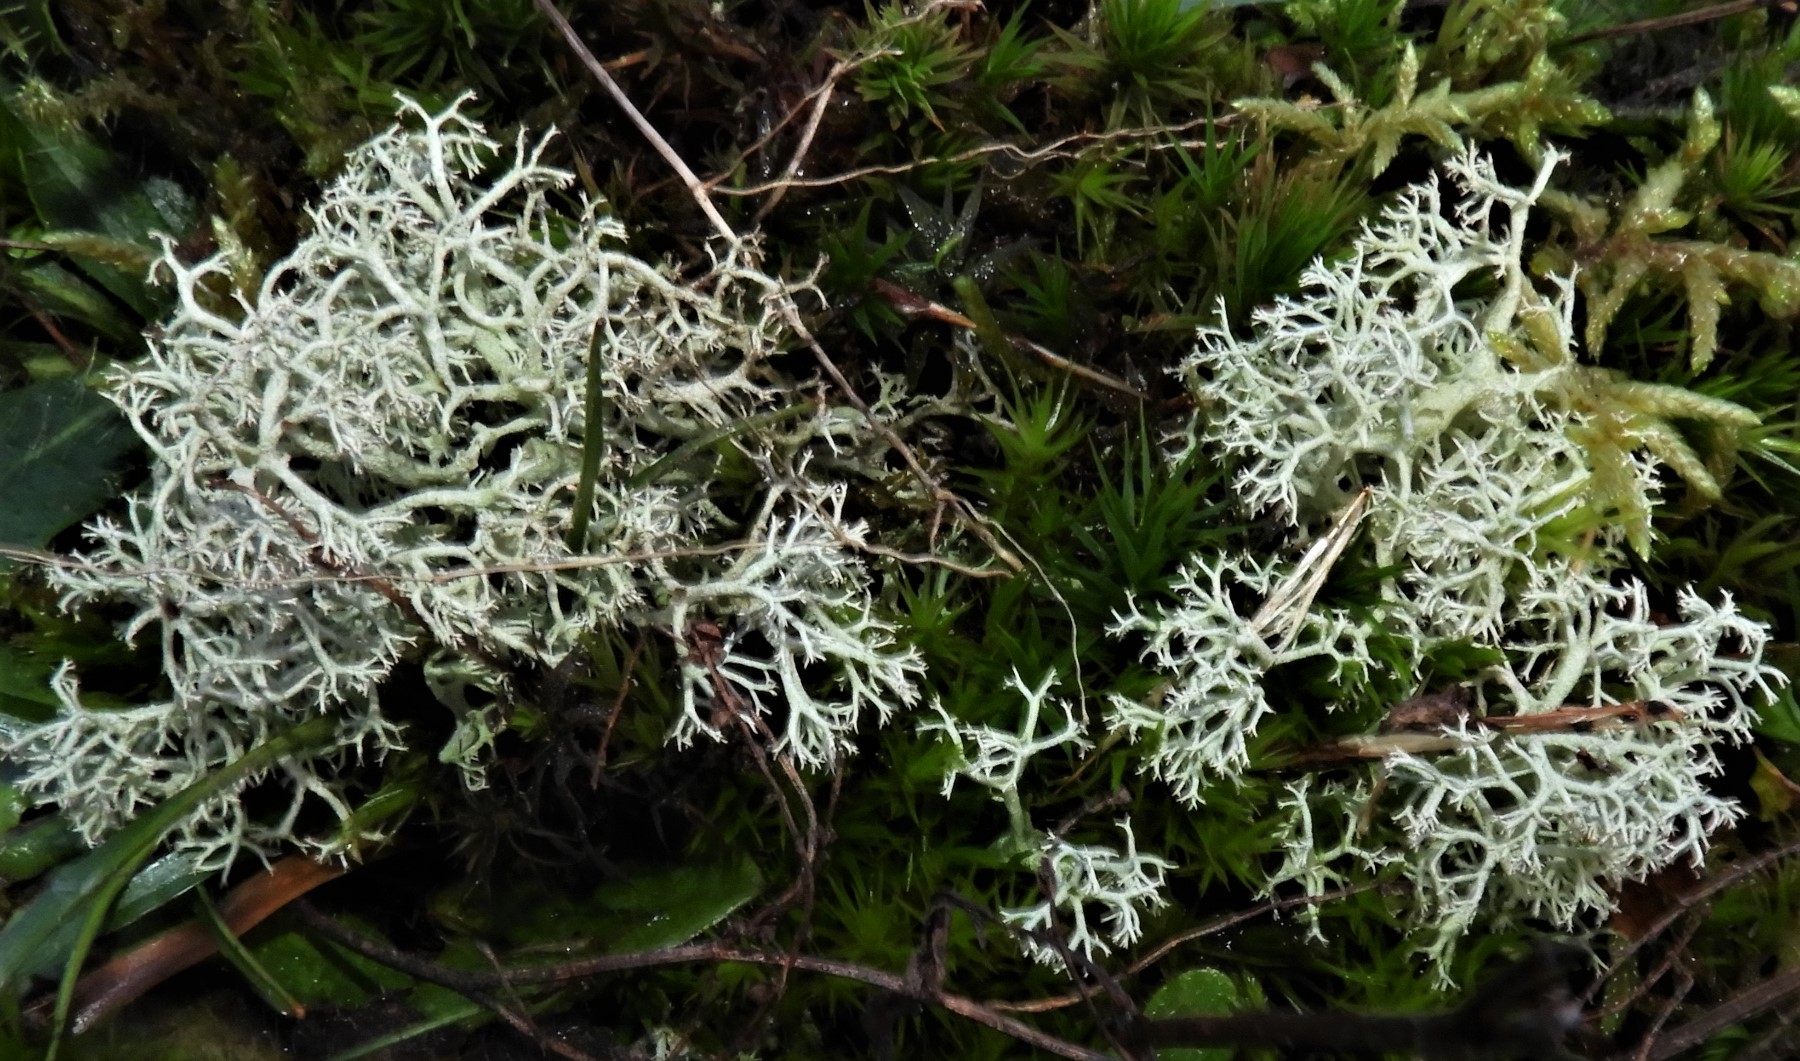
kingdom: Fungi
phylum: Ascomycota
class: Lecanoromycetes
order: Lecanorales
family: Cladoniaceae
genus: Cladonia
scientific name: Cladonia portentosa
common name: hede-rensdyrlav
